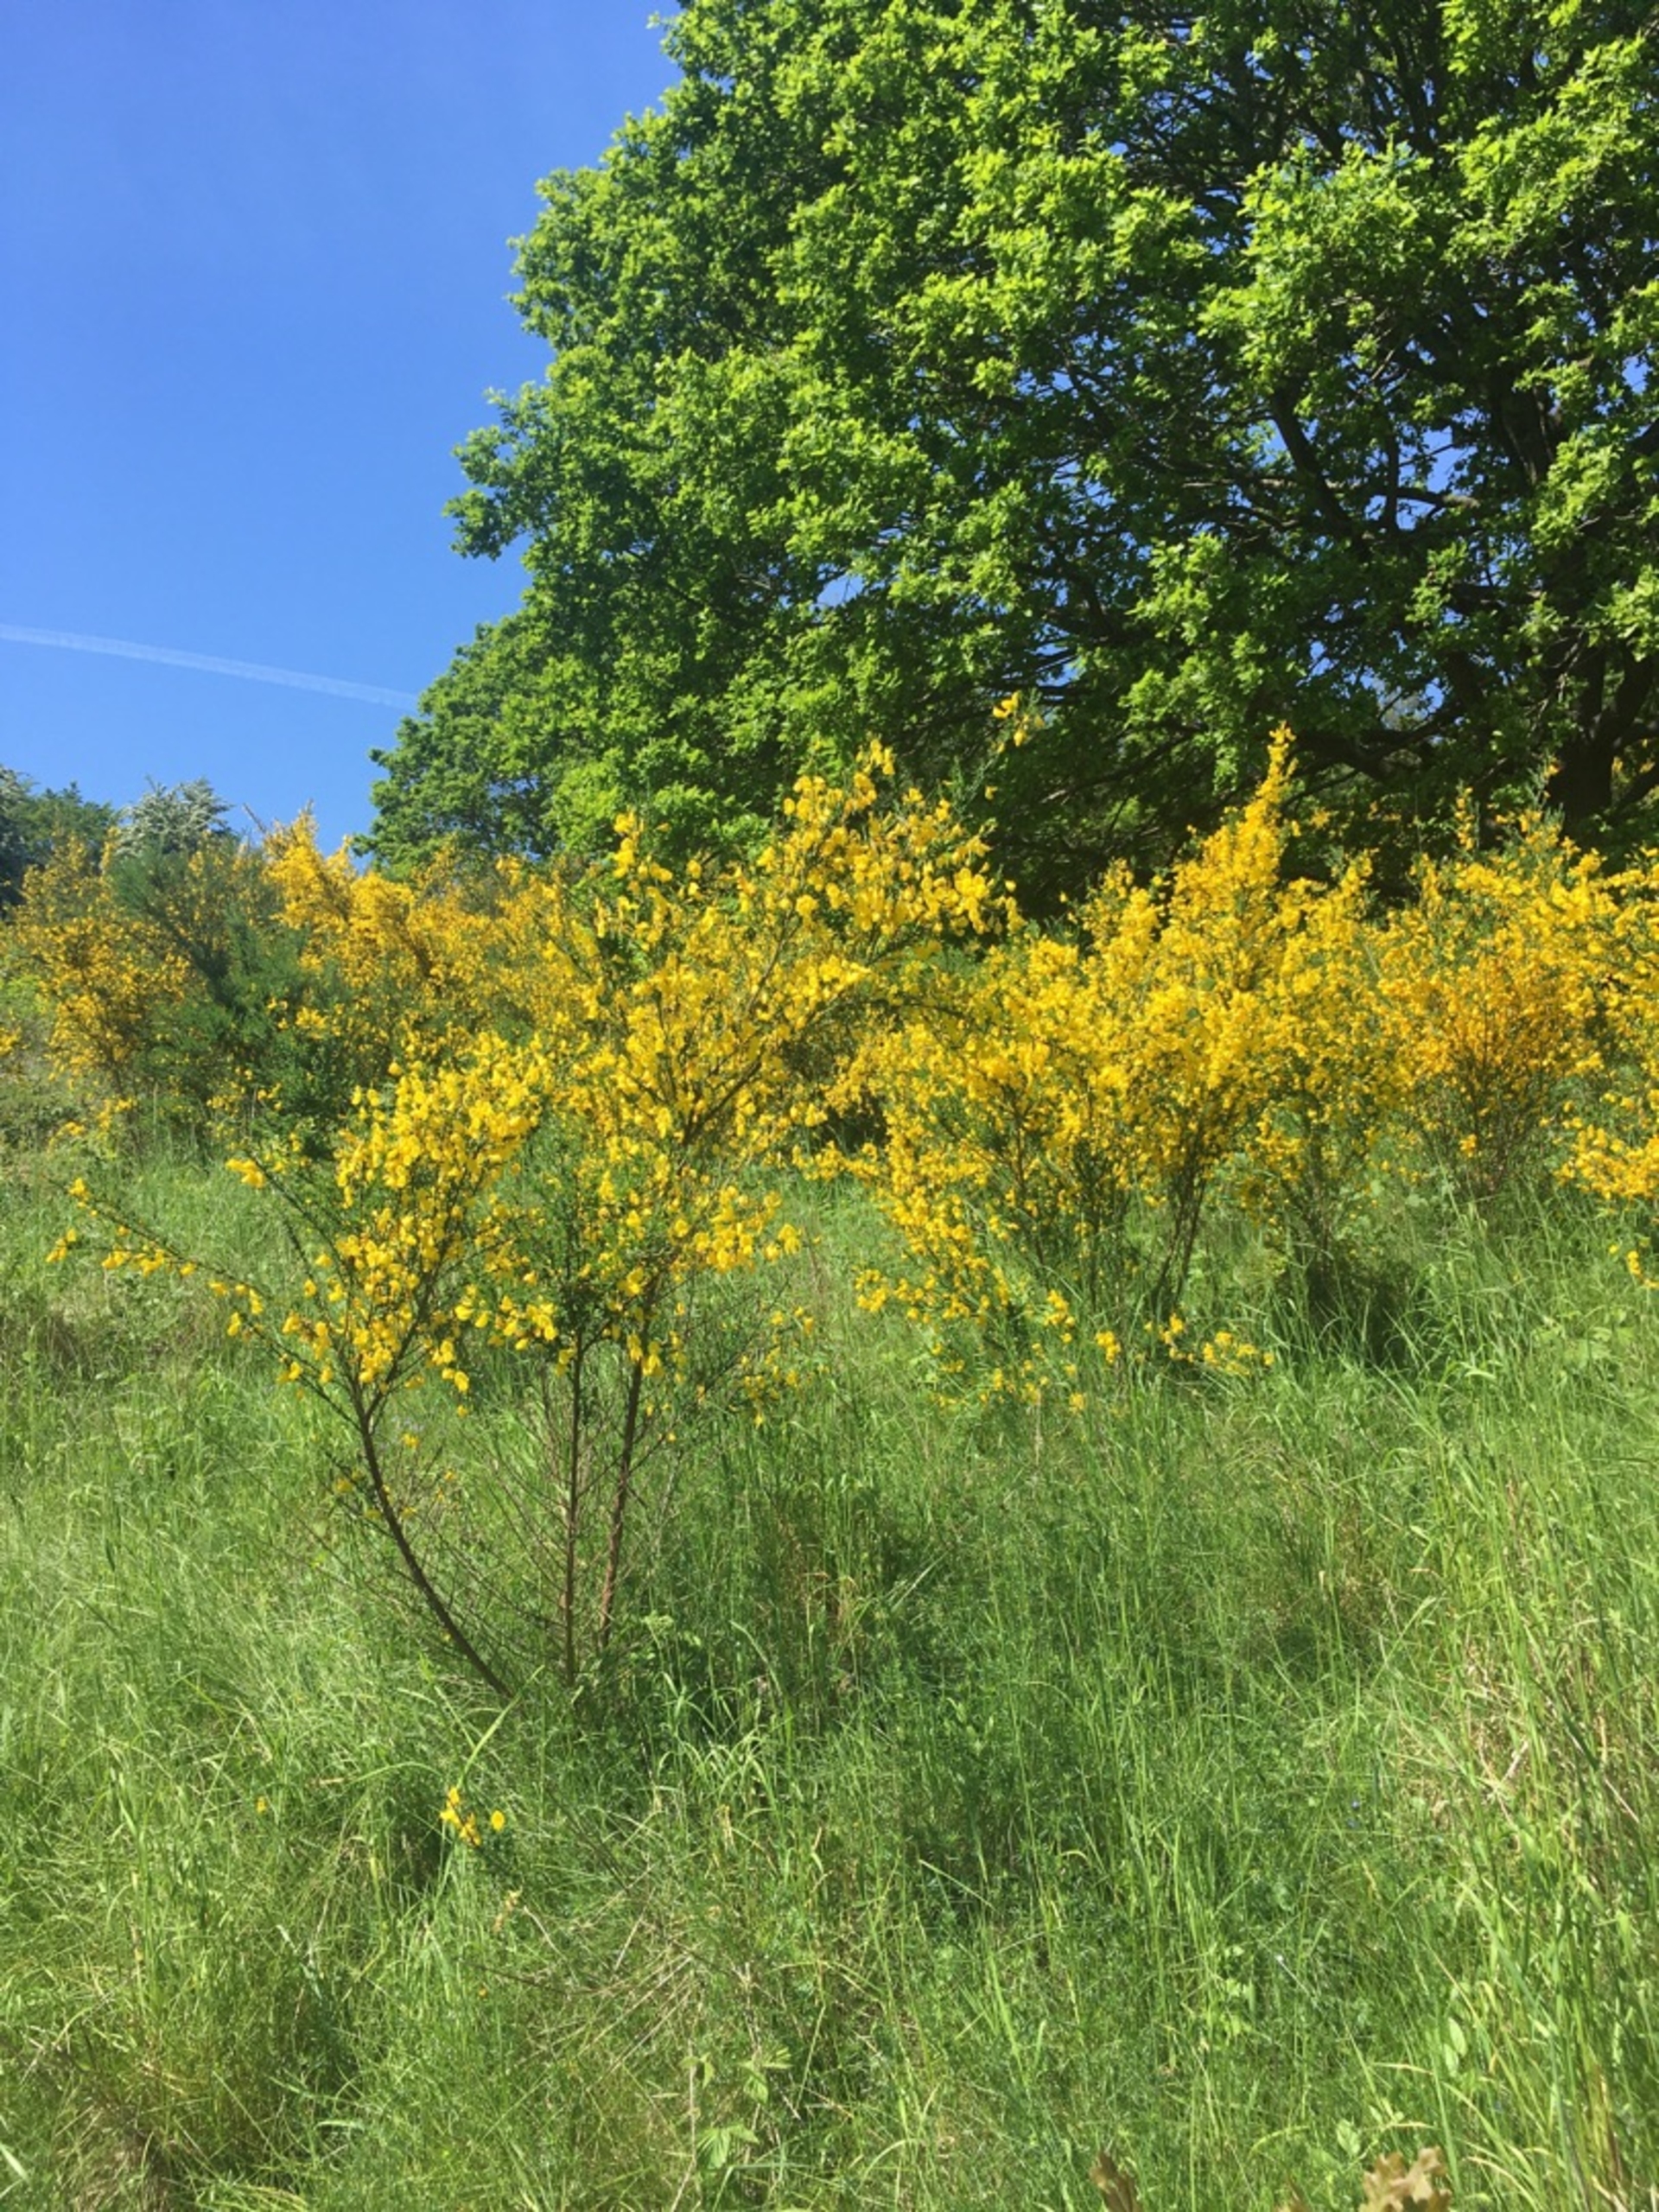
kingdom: Plantae
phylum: Tracheophyta
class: Magnoliopsida
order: Fabales
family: Fabaceae
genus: Cytisus
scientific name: Cytisus scoparius
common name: Almindelig gyvel
